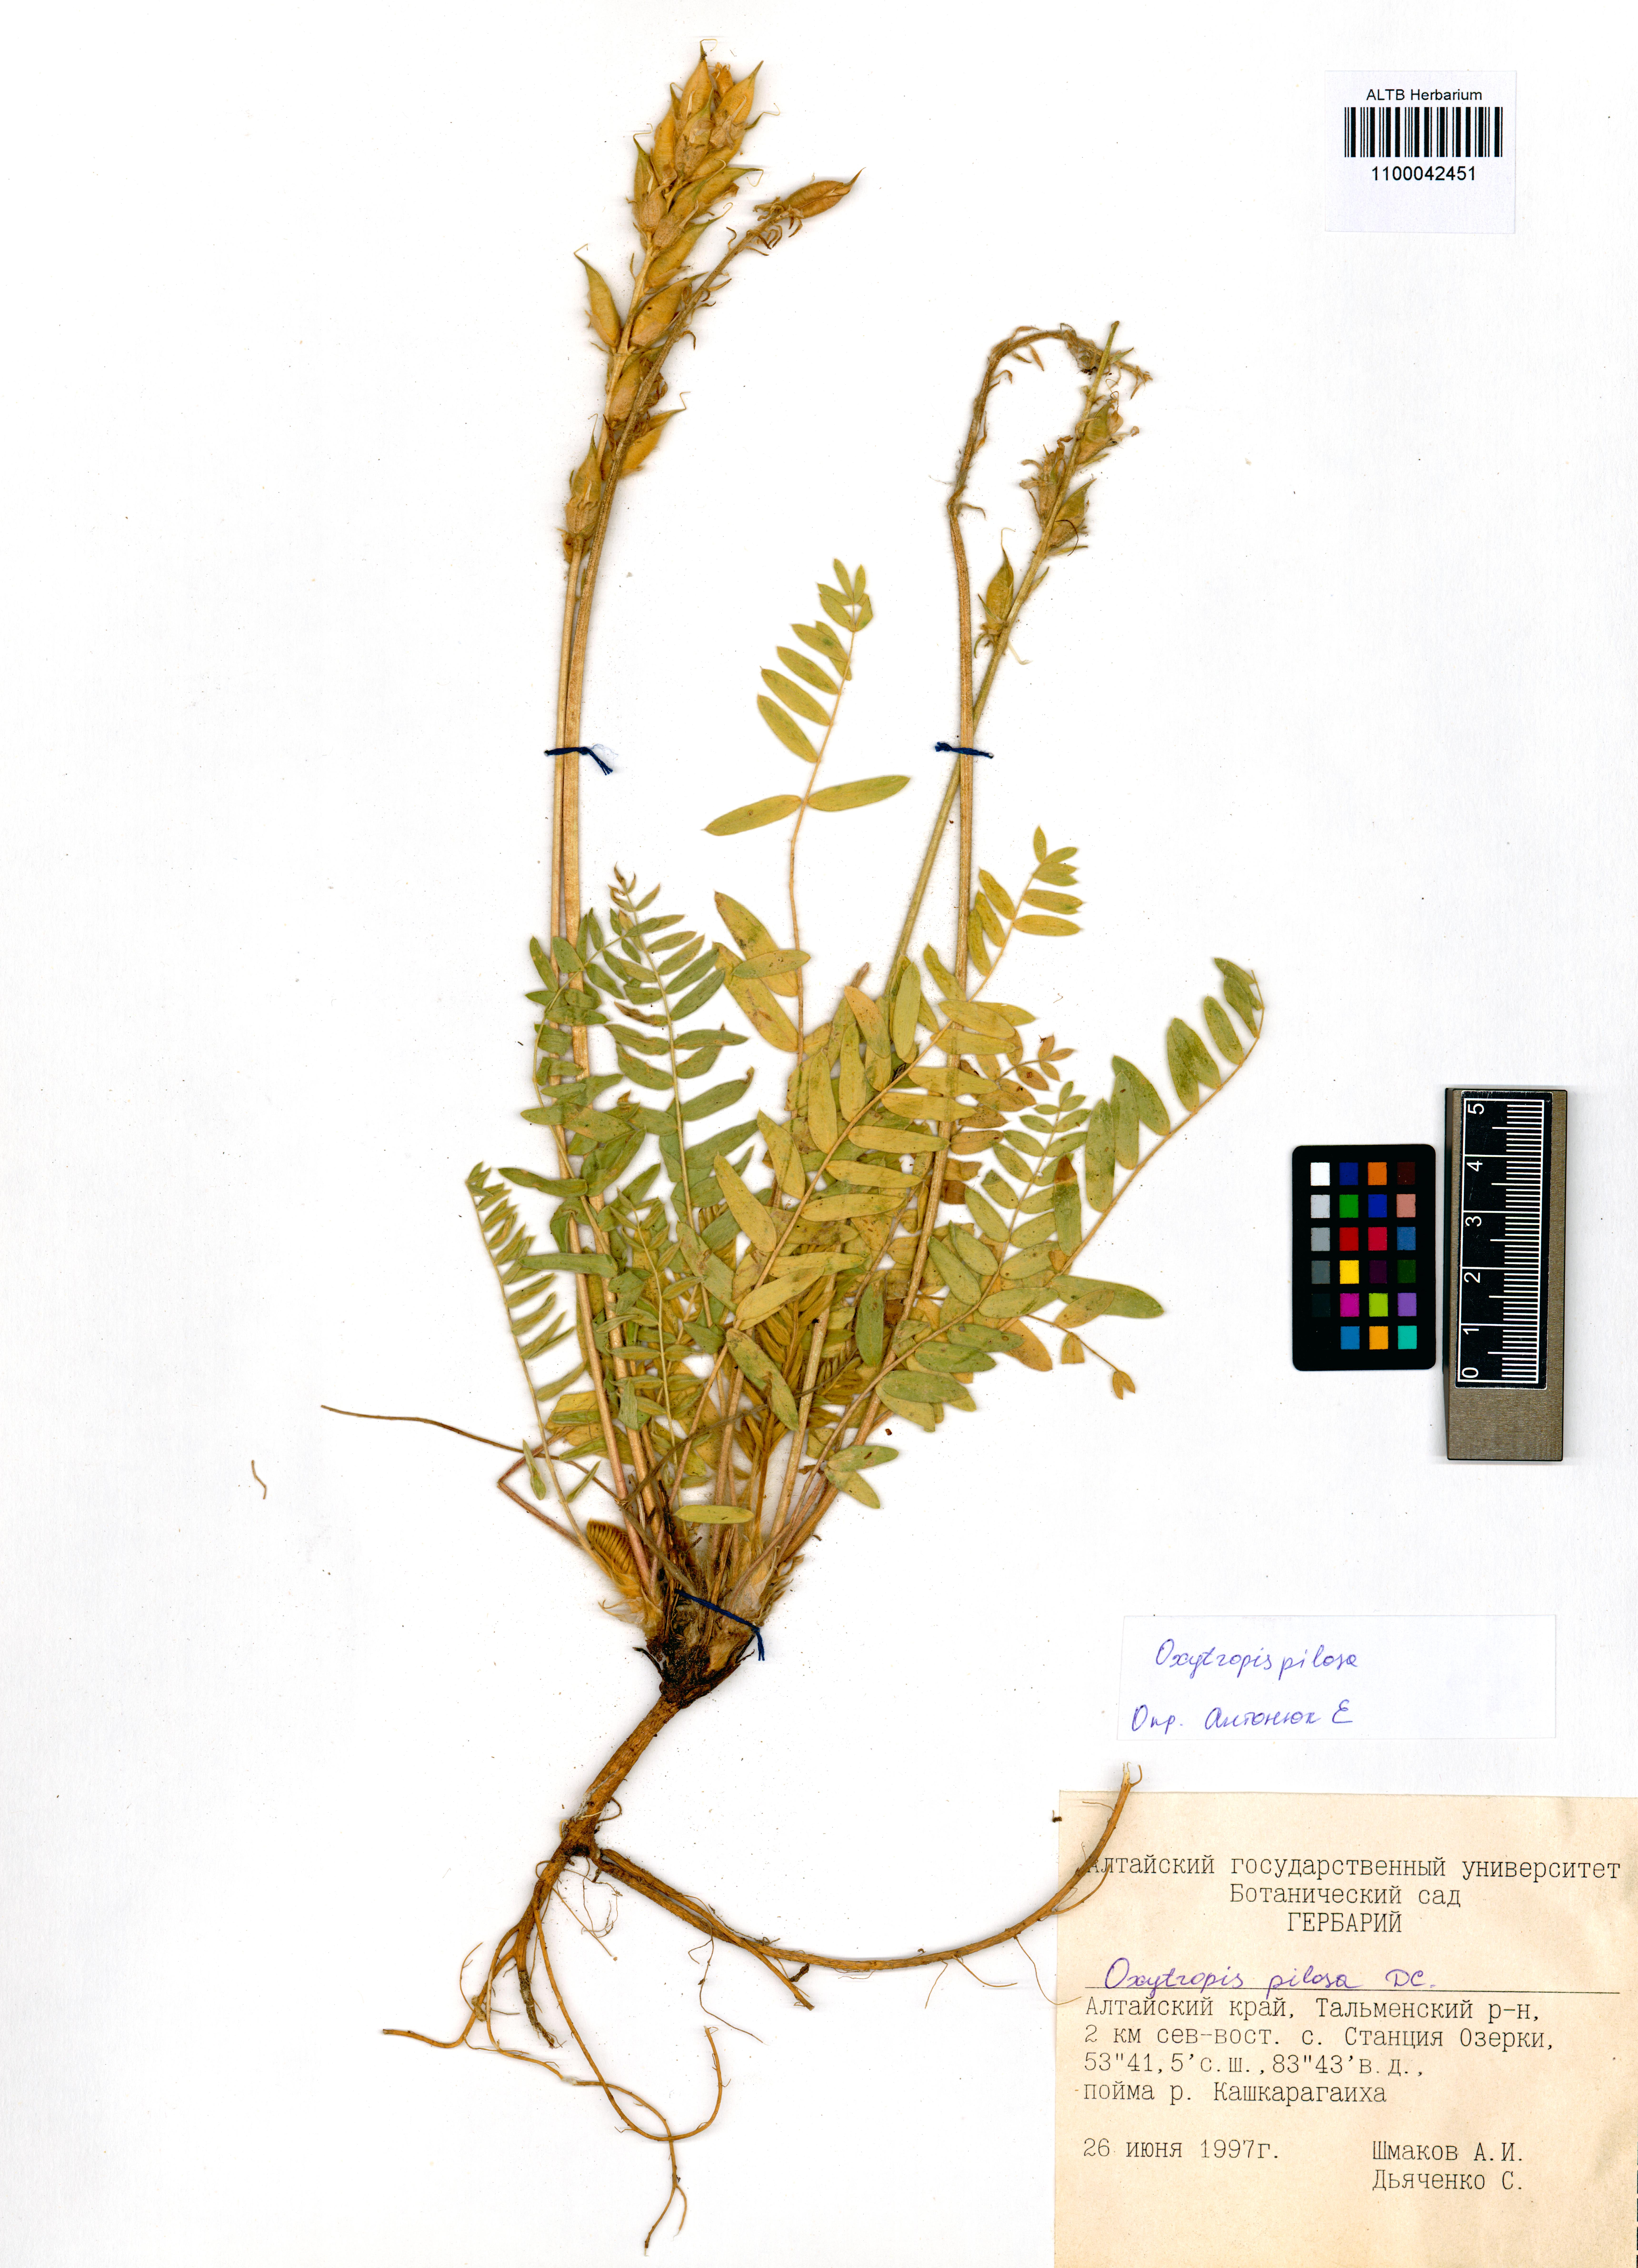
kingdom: Plantae
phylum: Tracheophyta
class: Magnoliopsida
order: Fabales
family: Fabaceae
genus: Oxytropis
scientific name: Oxytropis pilosa
